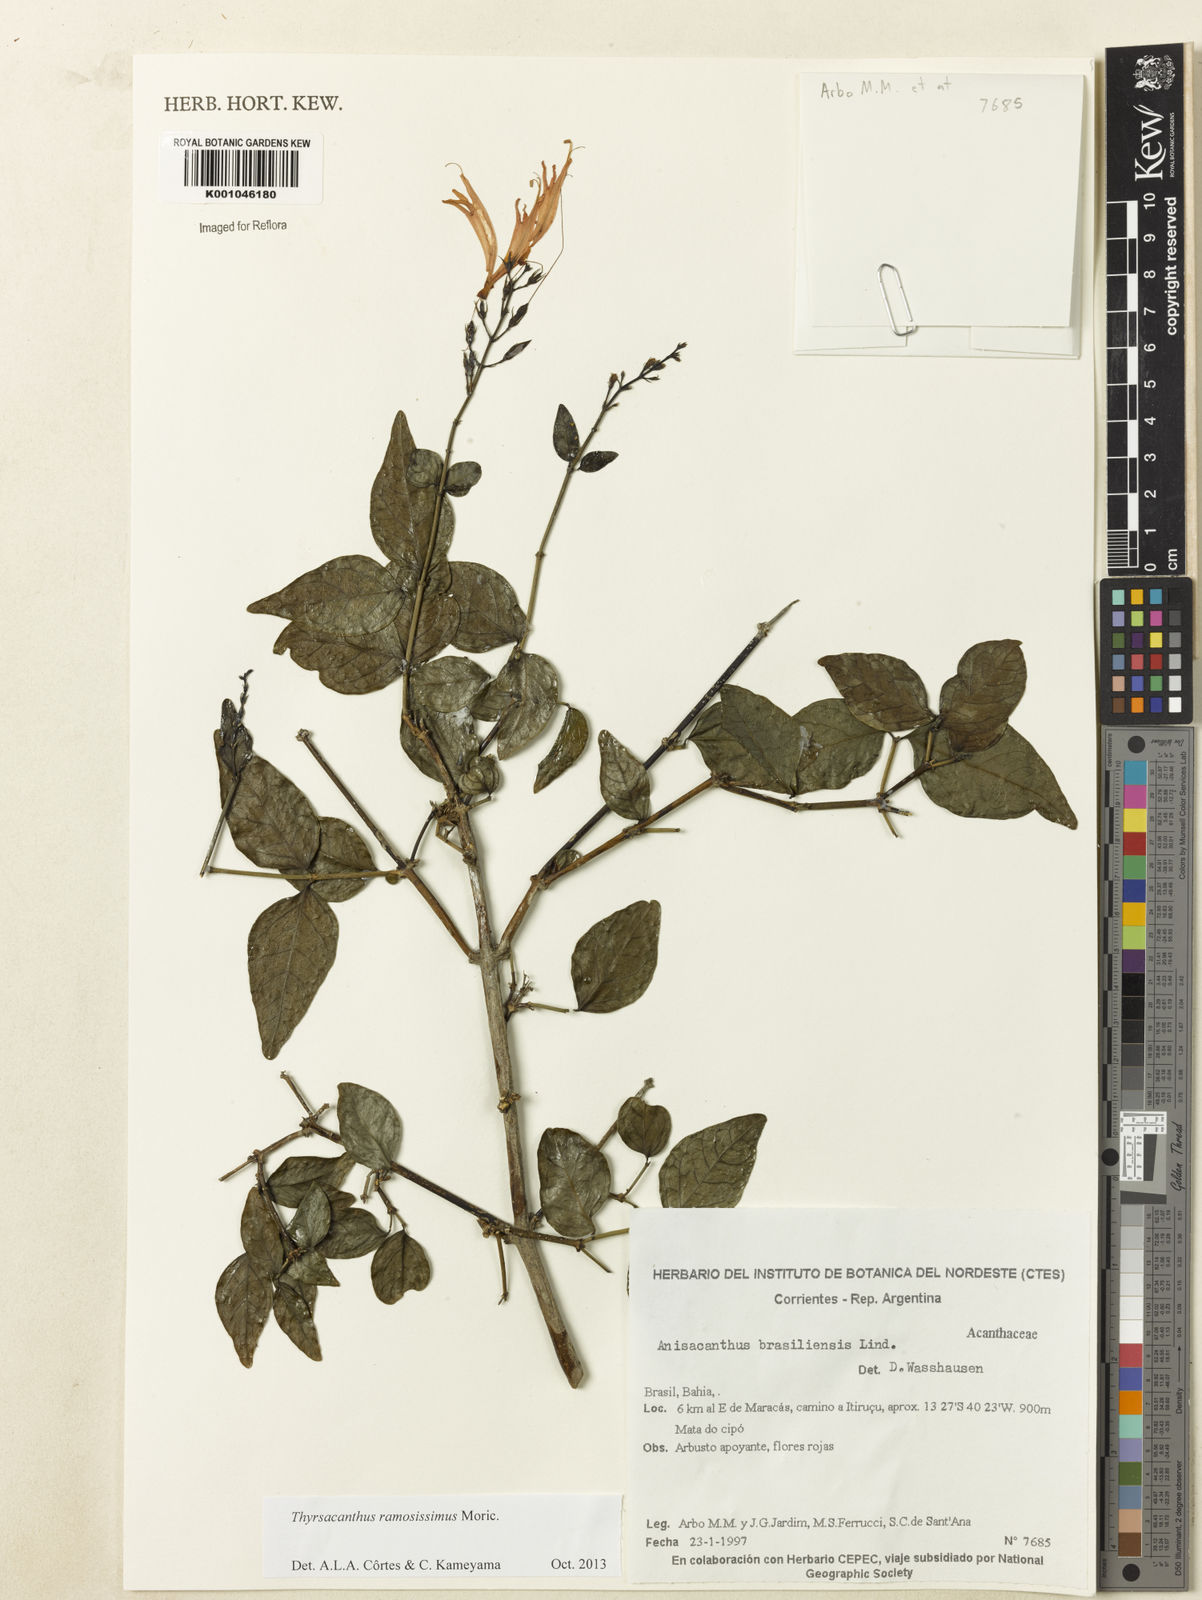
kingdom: Plantae
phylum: Tracheophyta
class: Magnoliopsida
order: Lamiales
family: Acanthaceae
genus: Thyrsacanthus
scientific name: Thyrsacanthus ramosissimus
